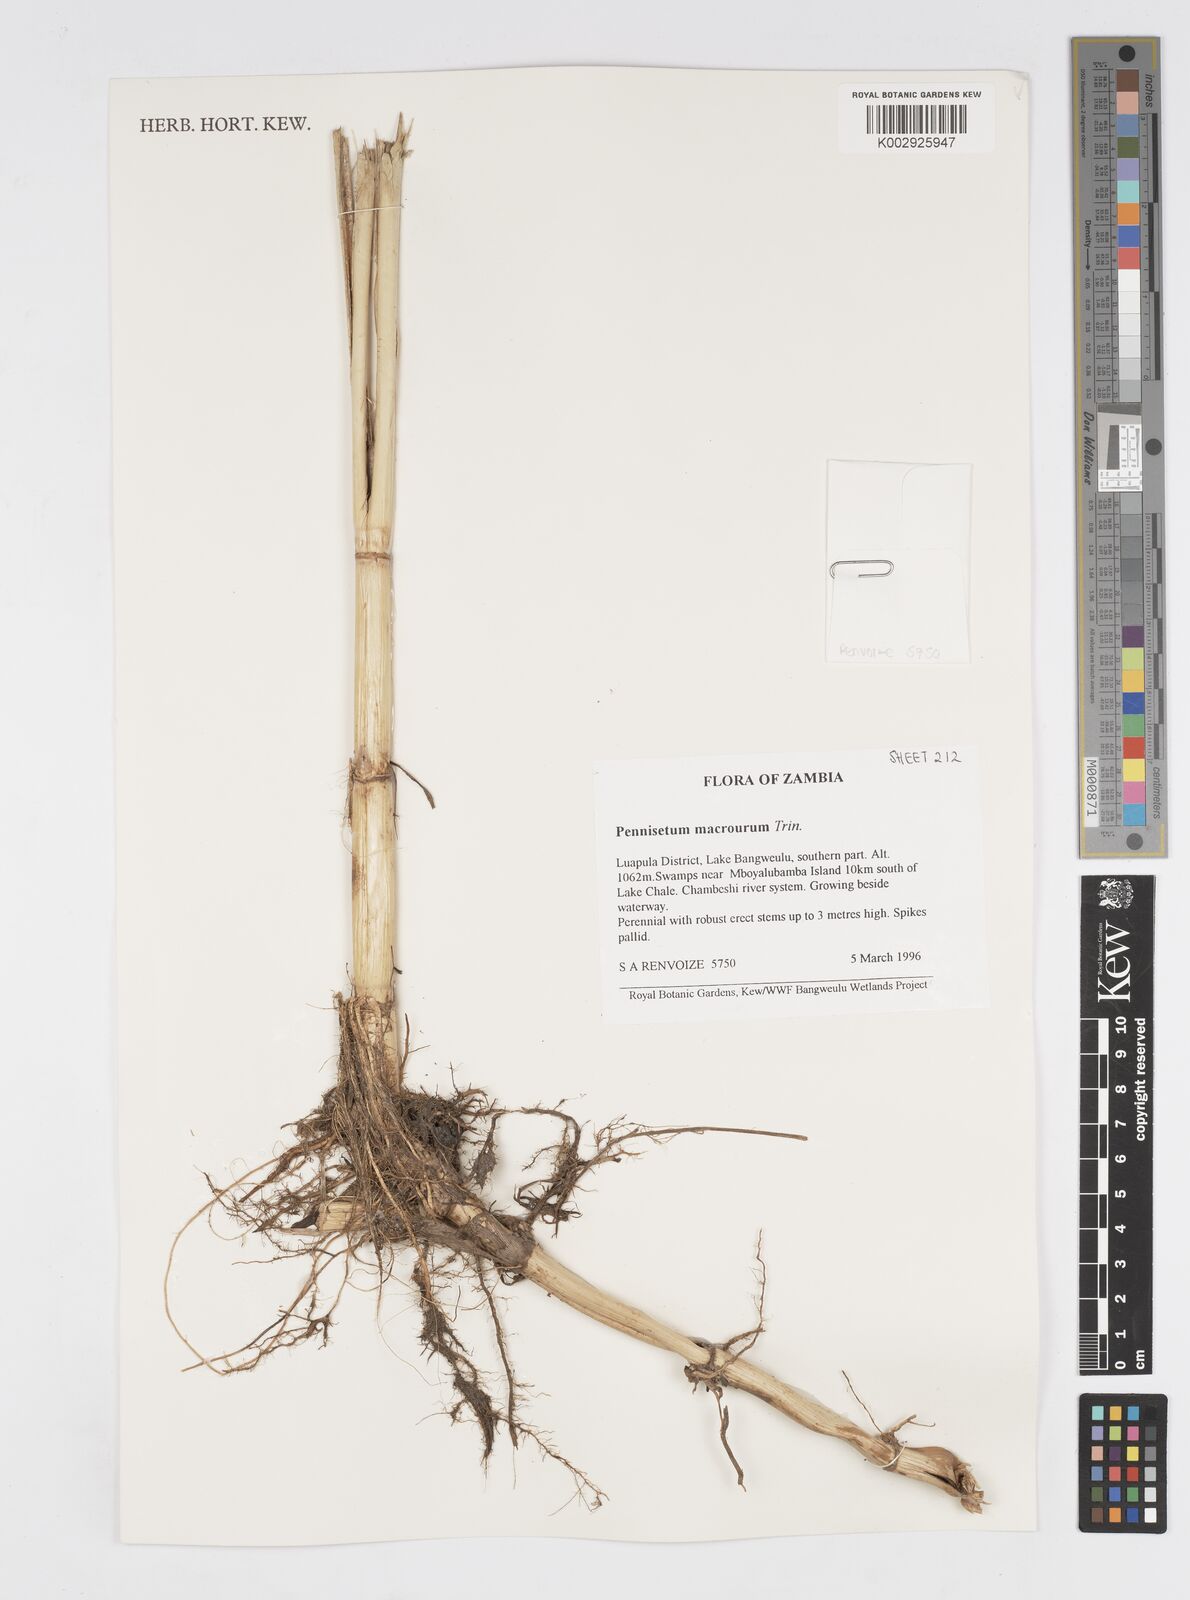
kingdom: Plantae
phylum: Tracheophyta
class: Liliopsida
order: Poales
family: Poaceae
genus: Cenchrus
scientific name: Cenchrus caudatus
